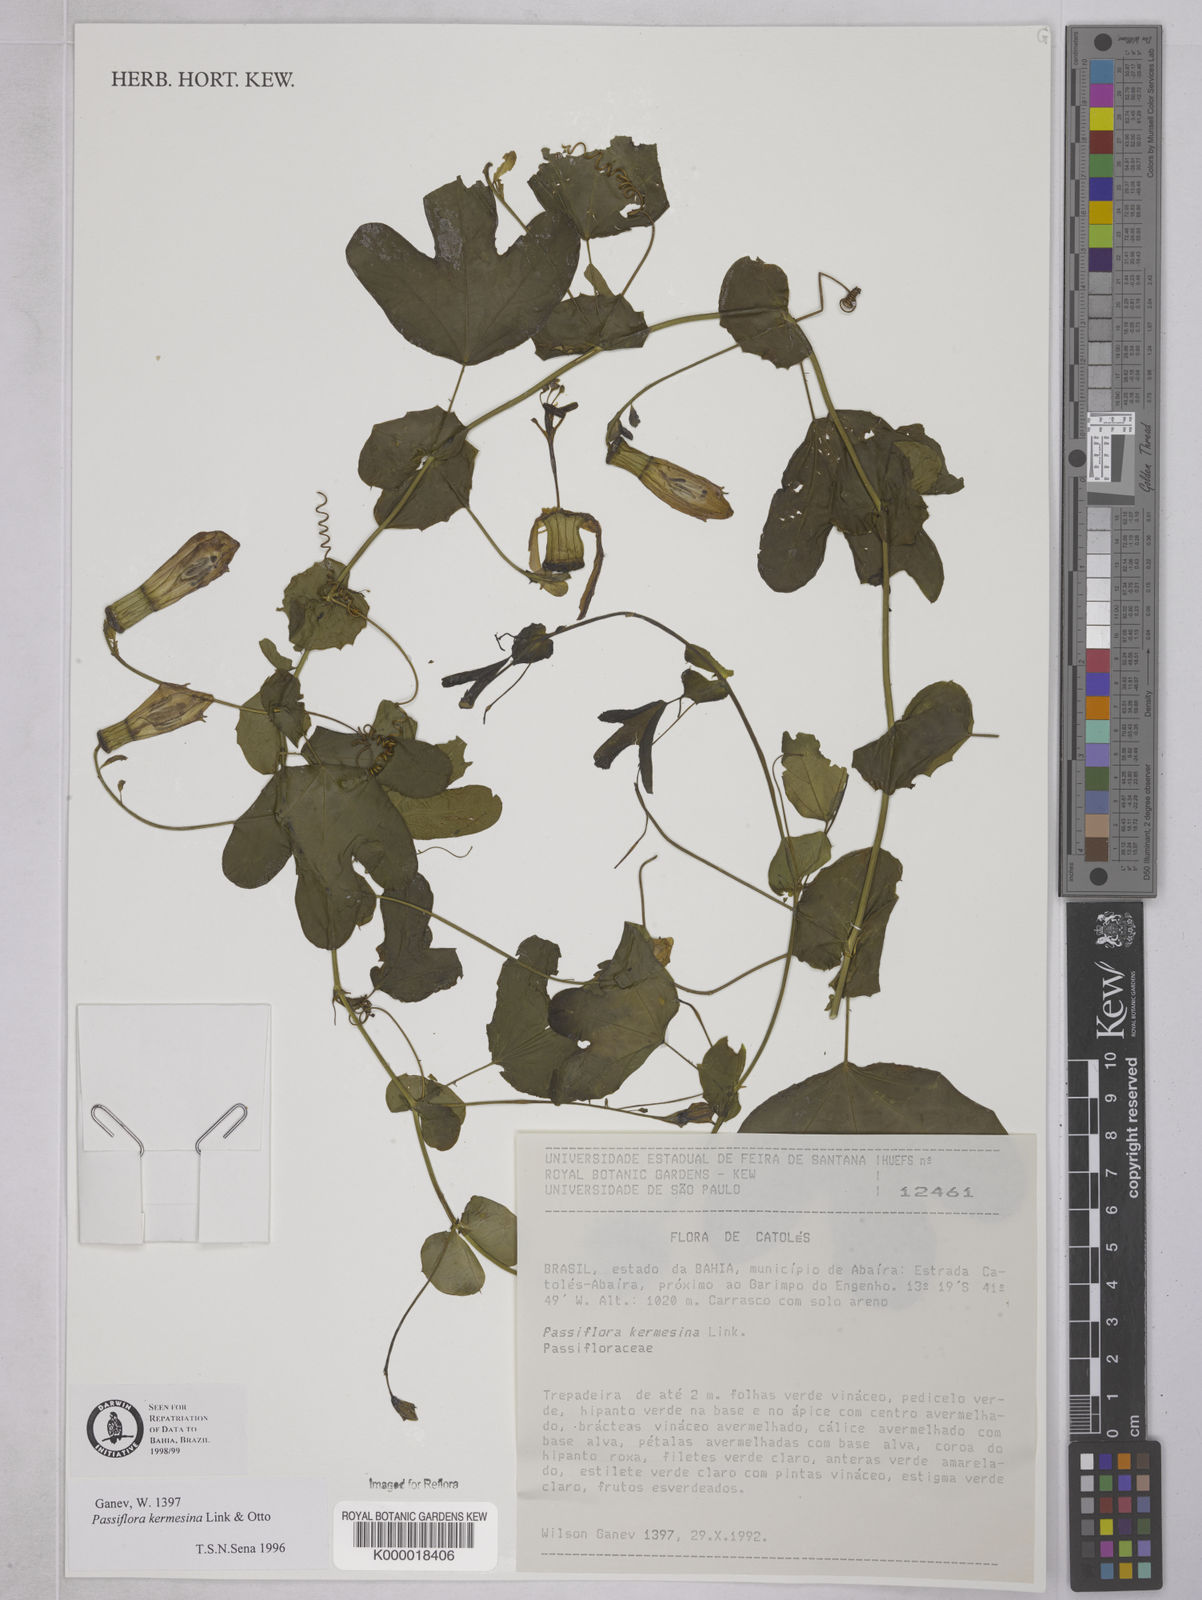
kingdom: Plantae
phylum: Tracheophyta
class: Magnoliopsida
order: Malpighiales
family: Passifloraceae
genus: Passiflora
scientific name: Passiflora kermesina
